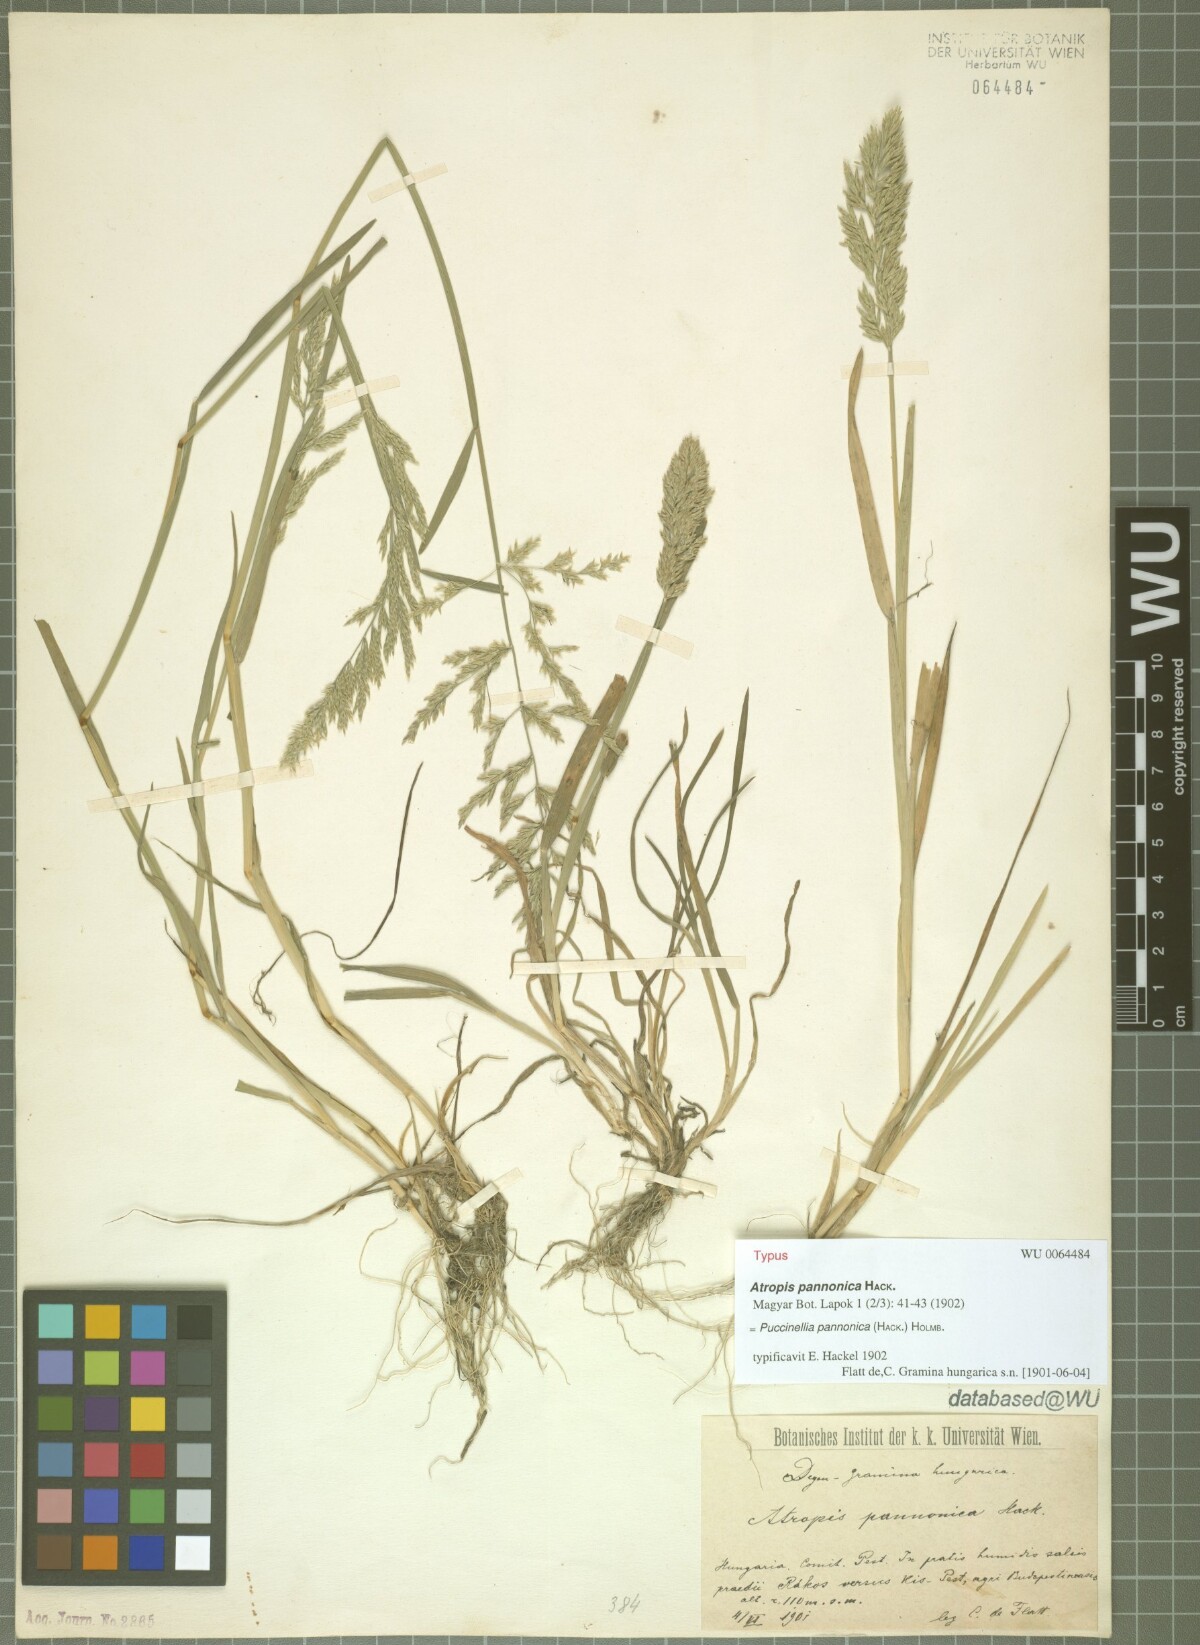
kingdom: Plantae
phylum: Tracheophyta
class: Liliopsida
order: Poales
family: Poaceae
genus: Puccinellia
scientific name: Puccinellia pannonica
